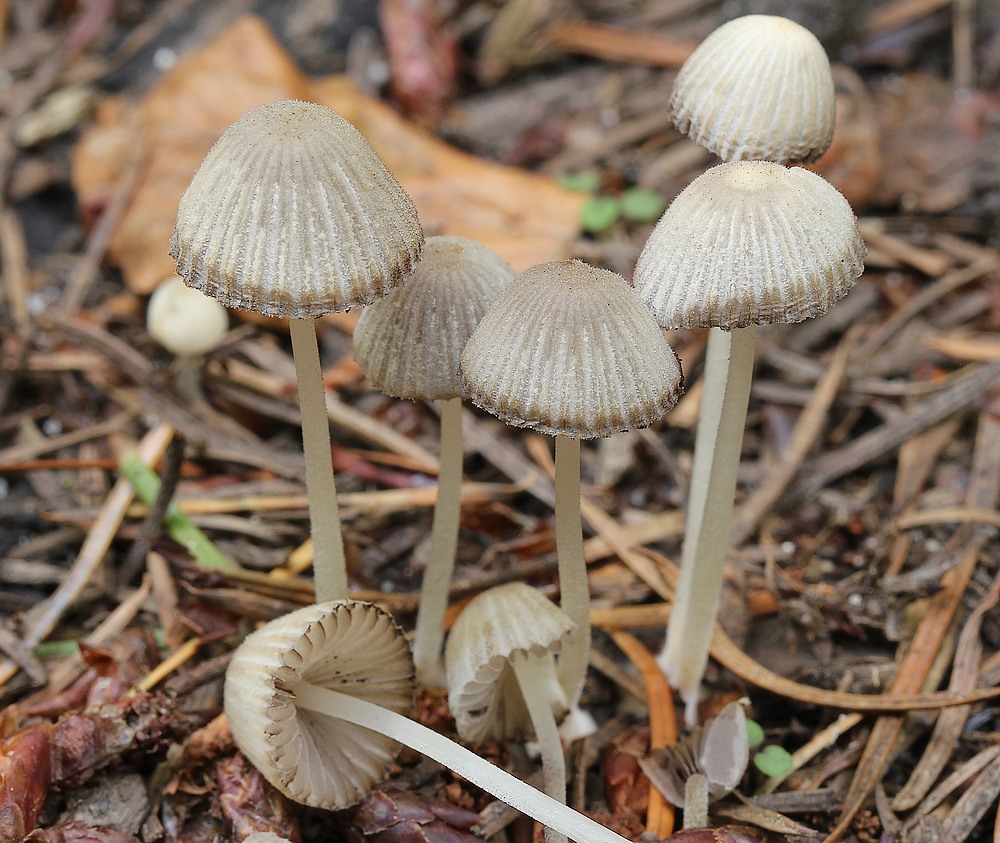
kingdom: Fungi
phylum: Basidiomycota
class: Agaricomycetes
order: Agaricales
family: Psathyrellaceae
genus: Coprinellus
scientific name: Coprinellus disseminatus
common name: bredsået blækhat
